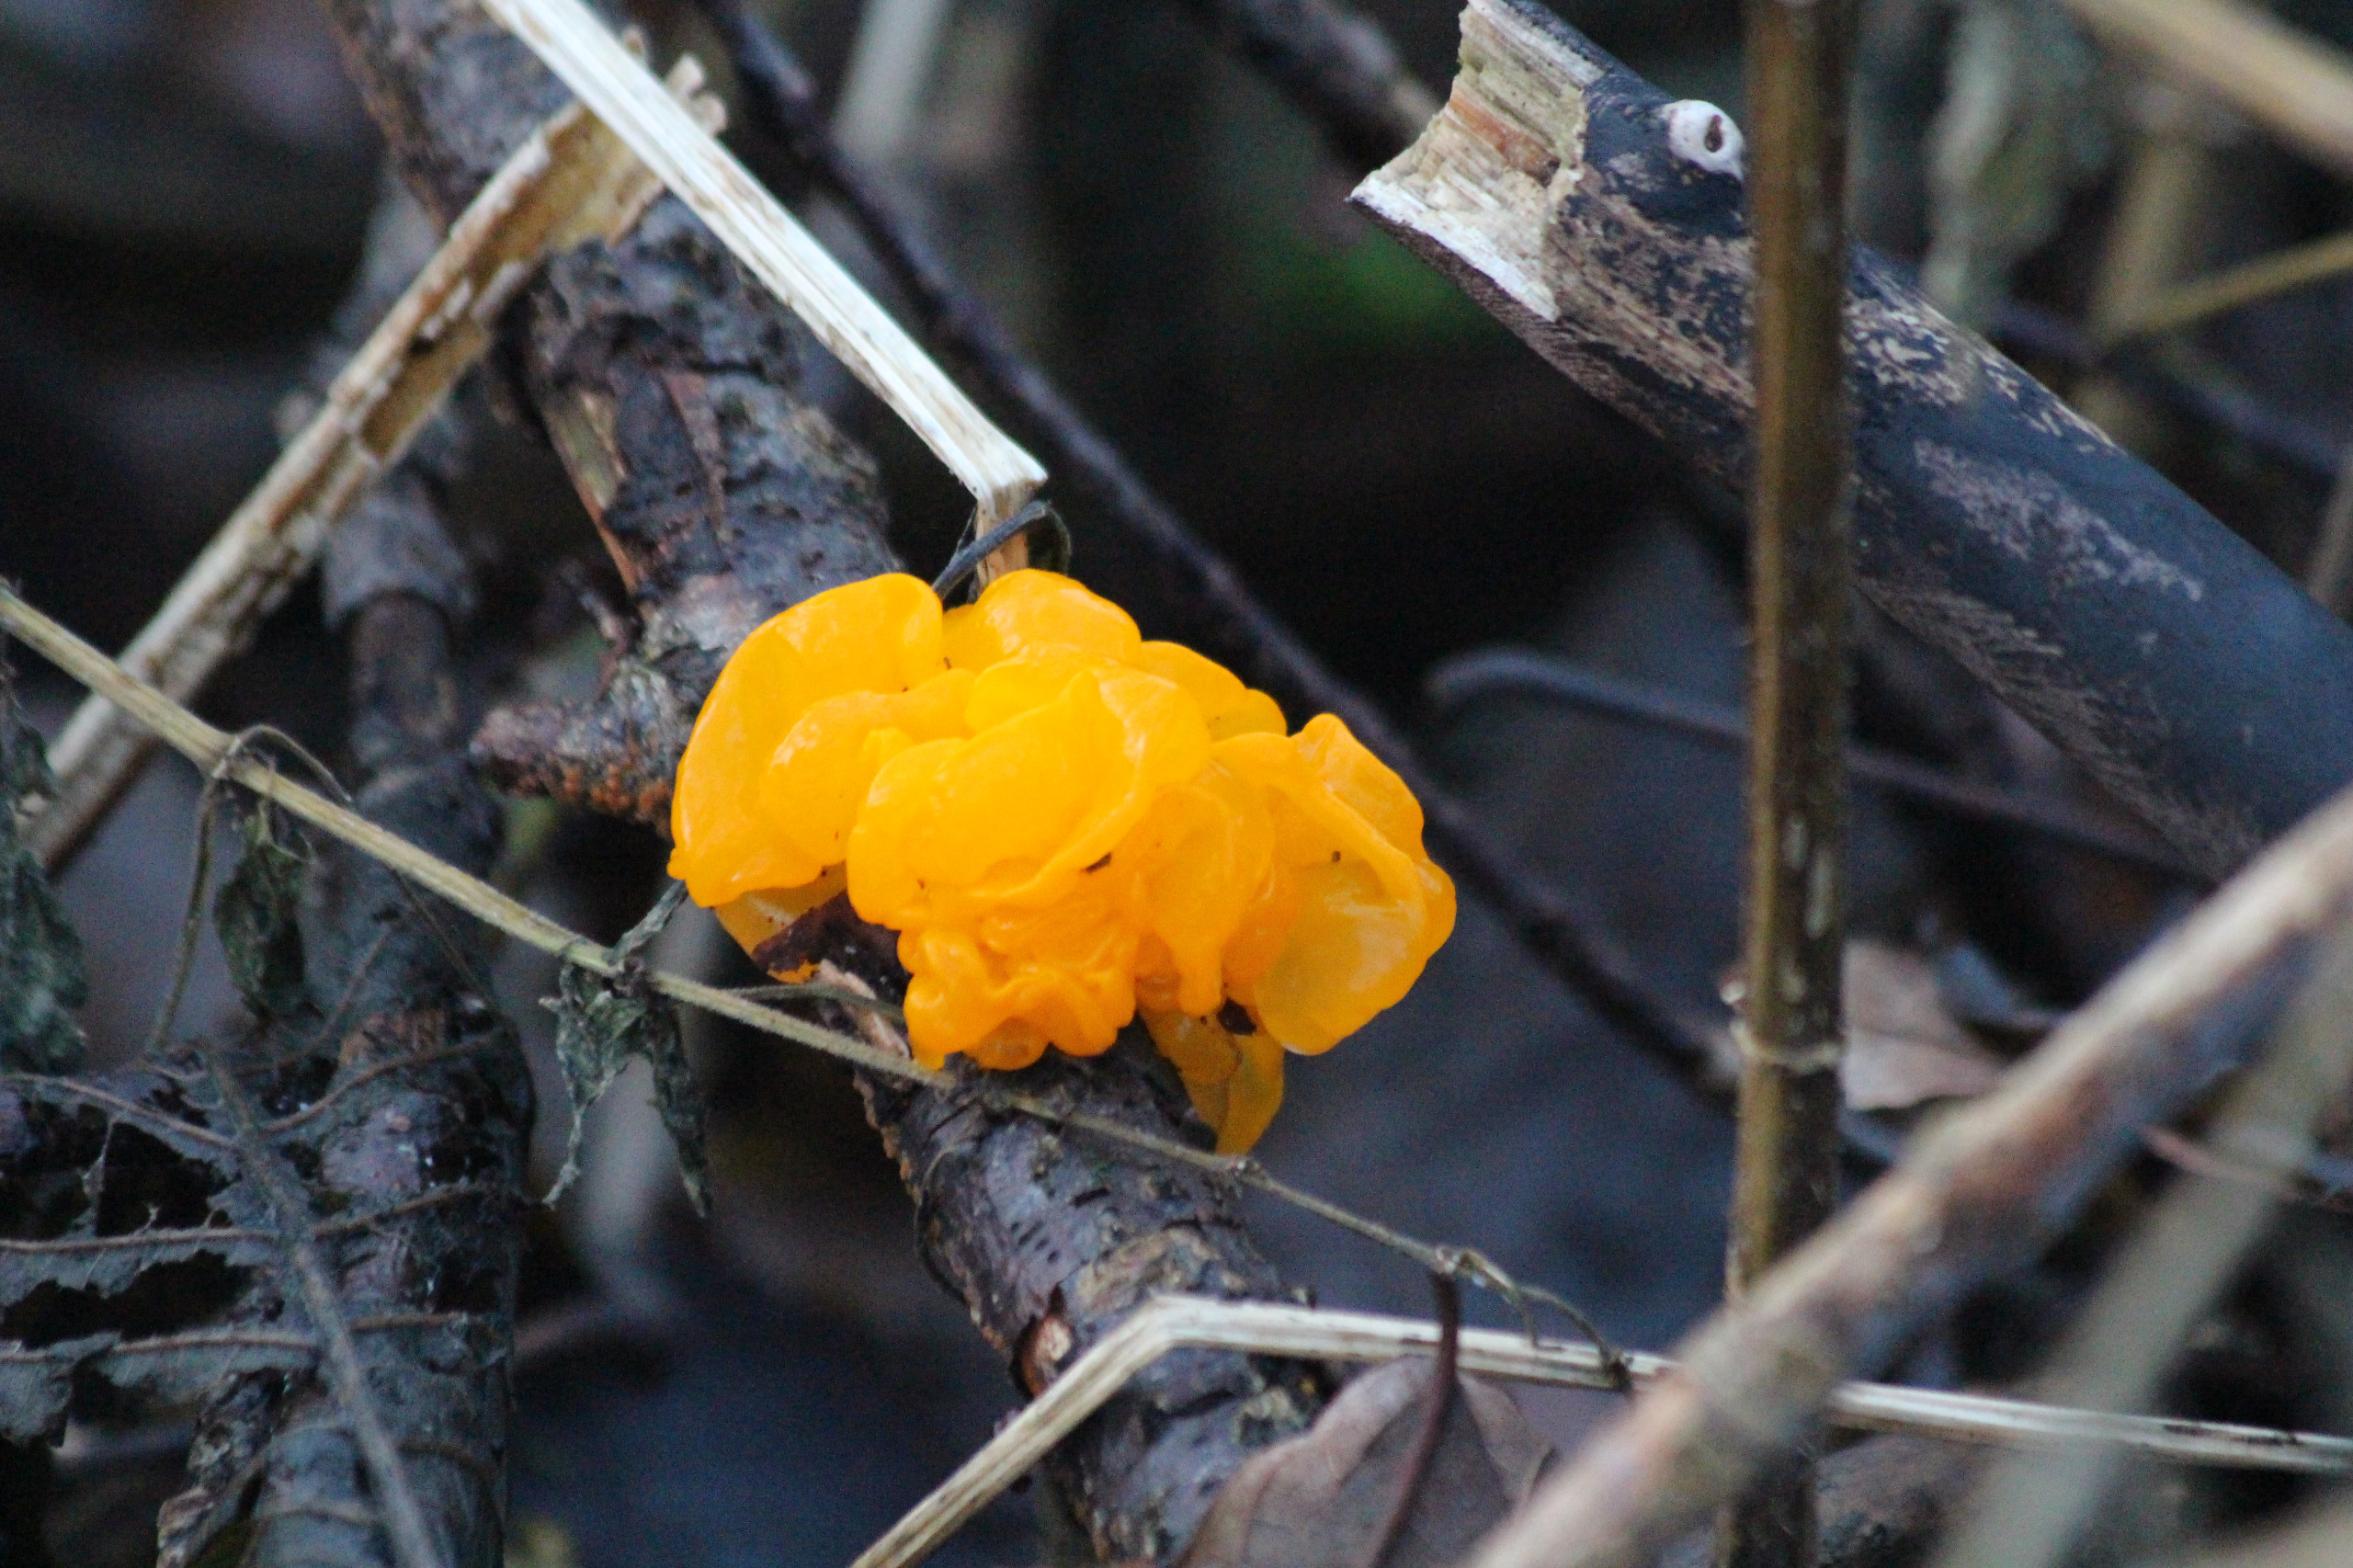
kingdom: Fungi
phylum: Basidiomycota
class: Tremellomycetes
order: Tremellales
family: Tremellaceae
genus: Tremella
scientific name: Tremella mesenterica
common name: Gul bævresvamp
